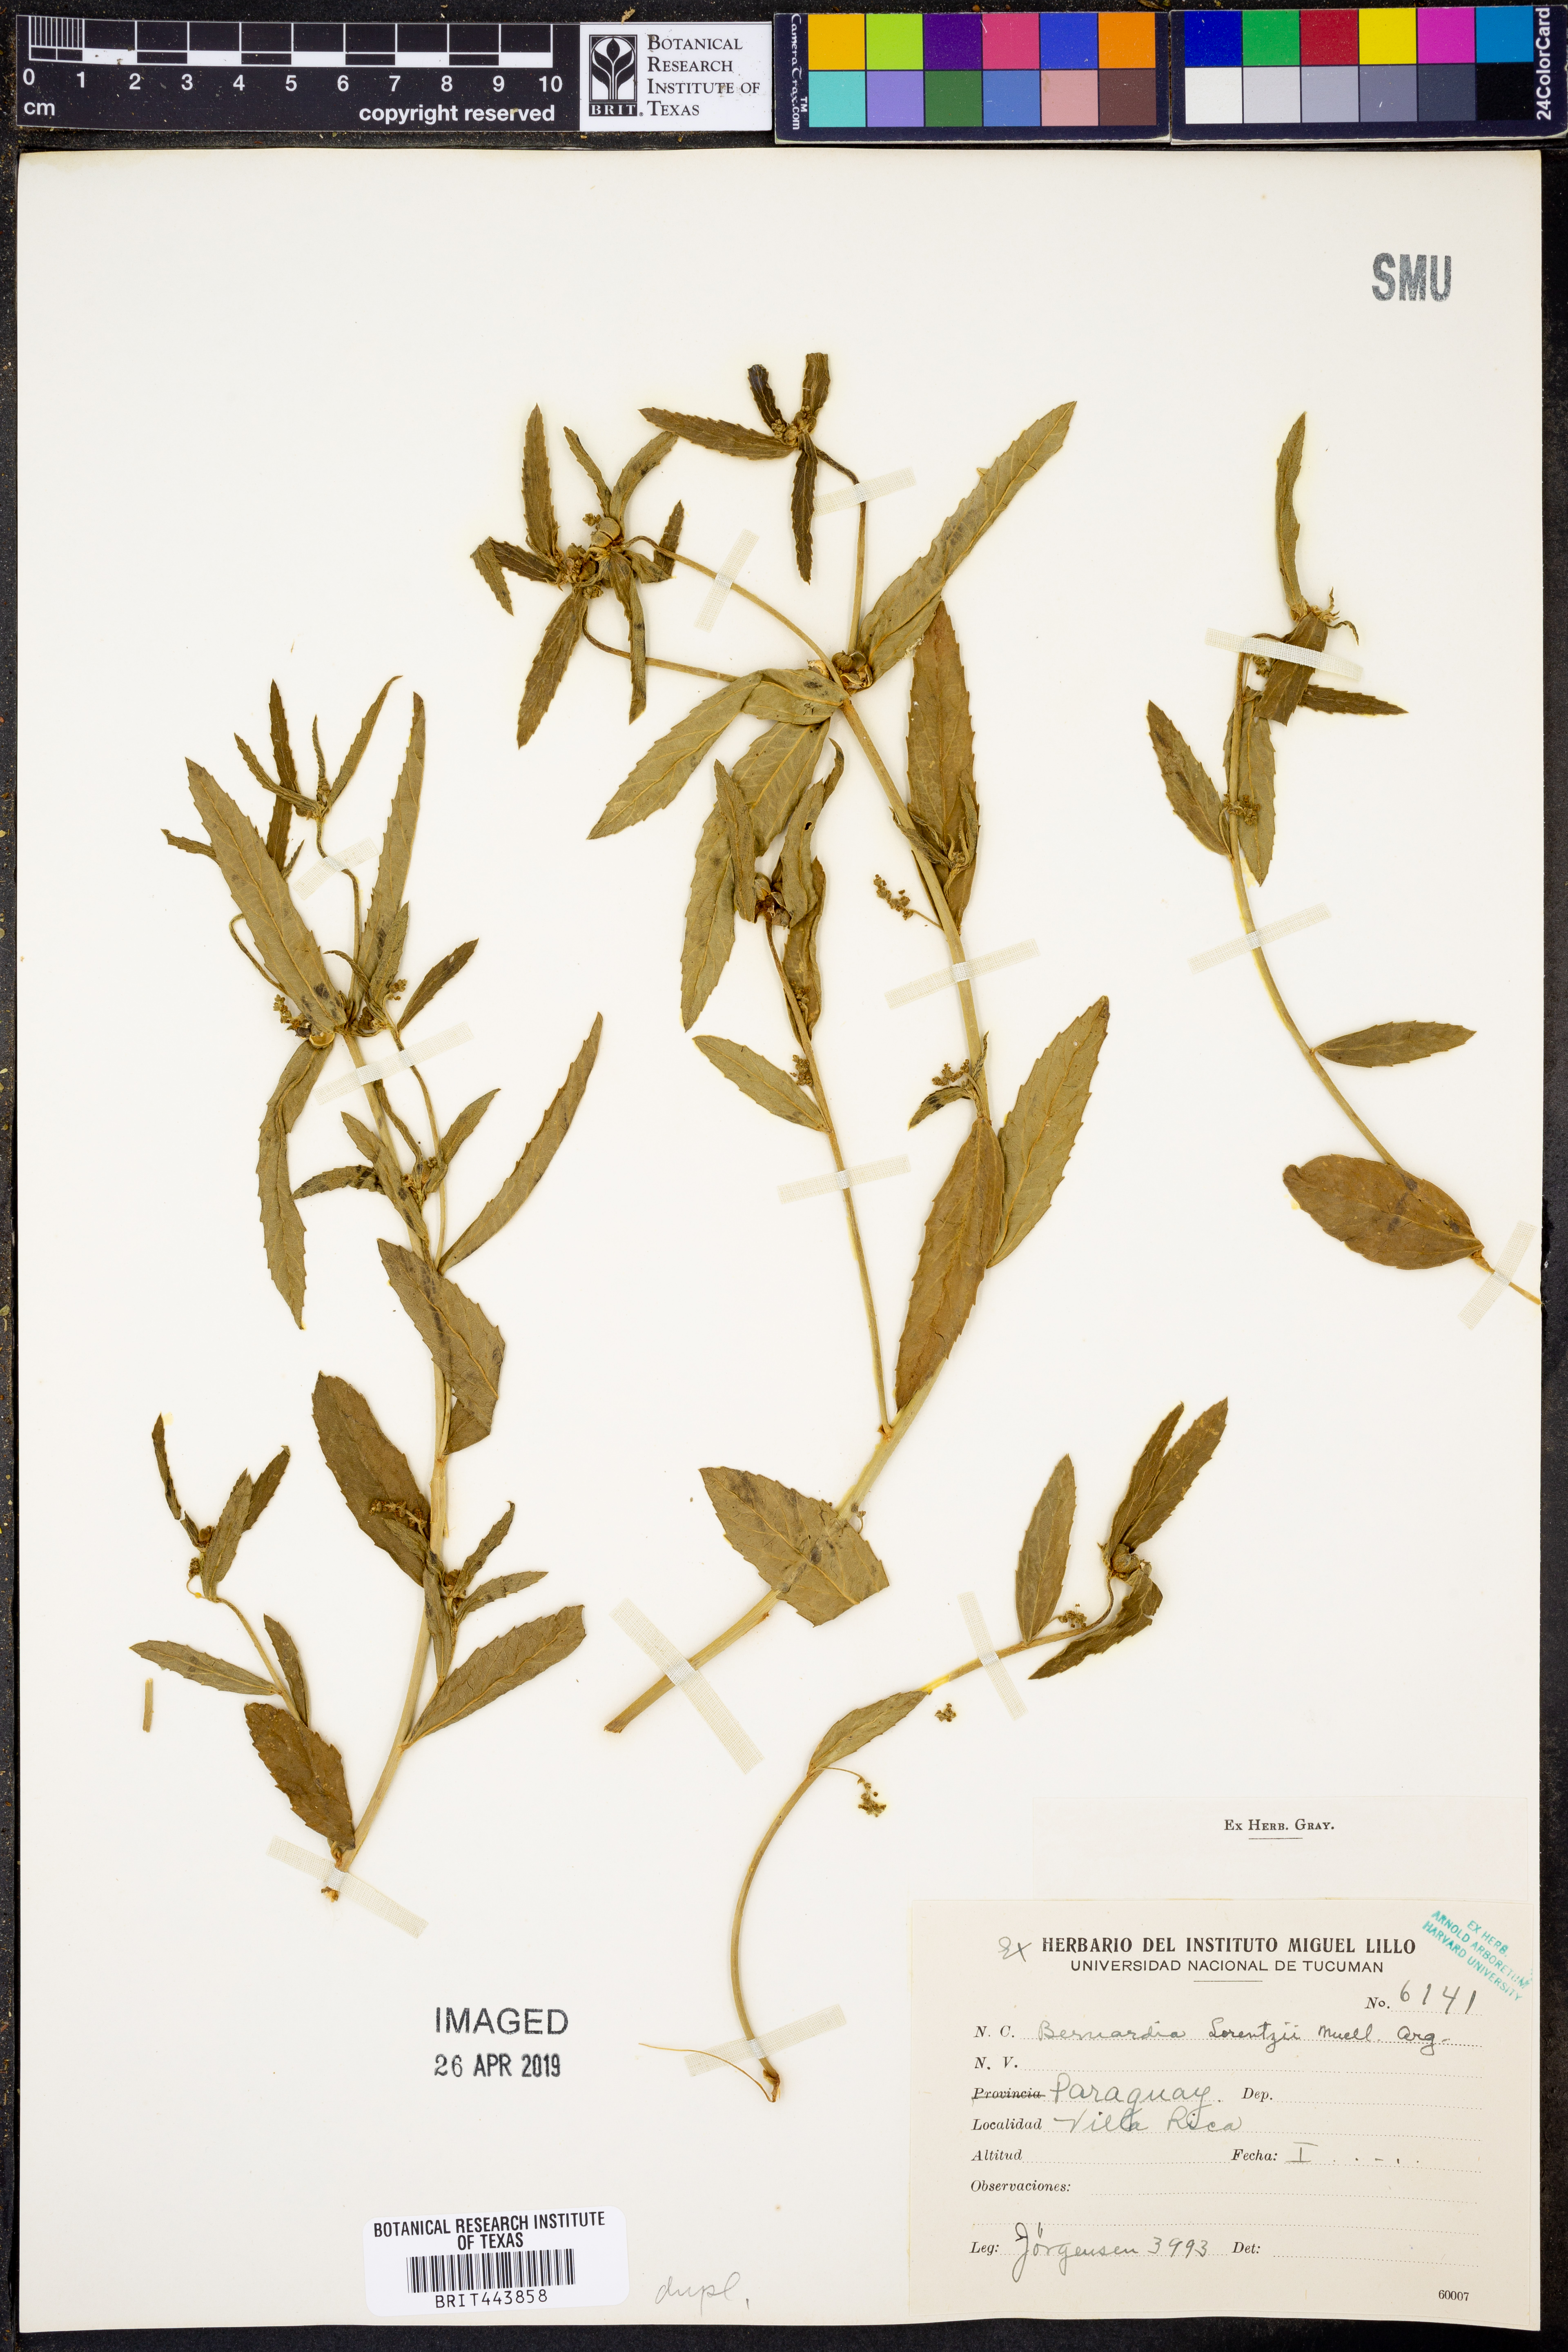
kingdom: Plantae
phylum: Tracheophyta
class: Magnoliopsida
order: Malpighiales
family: Euphorbiaceae
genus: Bernardia
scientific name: Bernardia multicaulis
